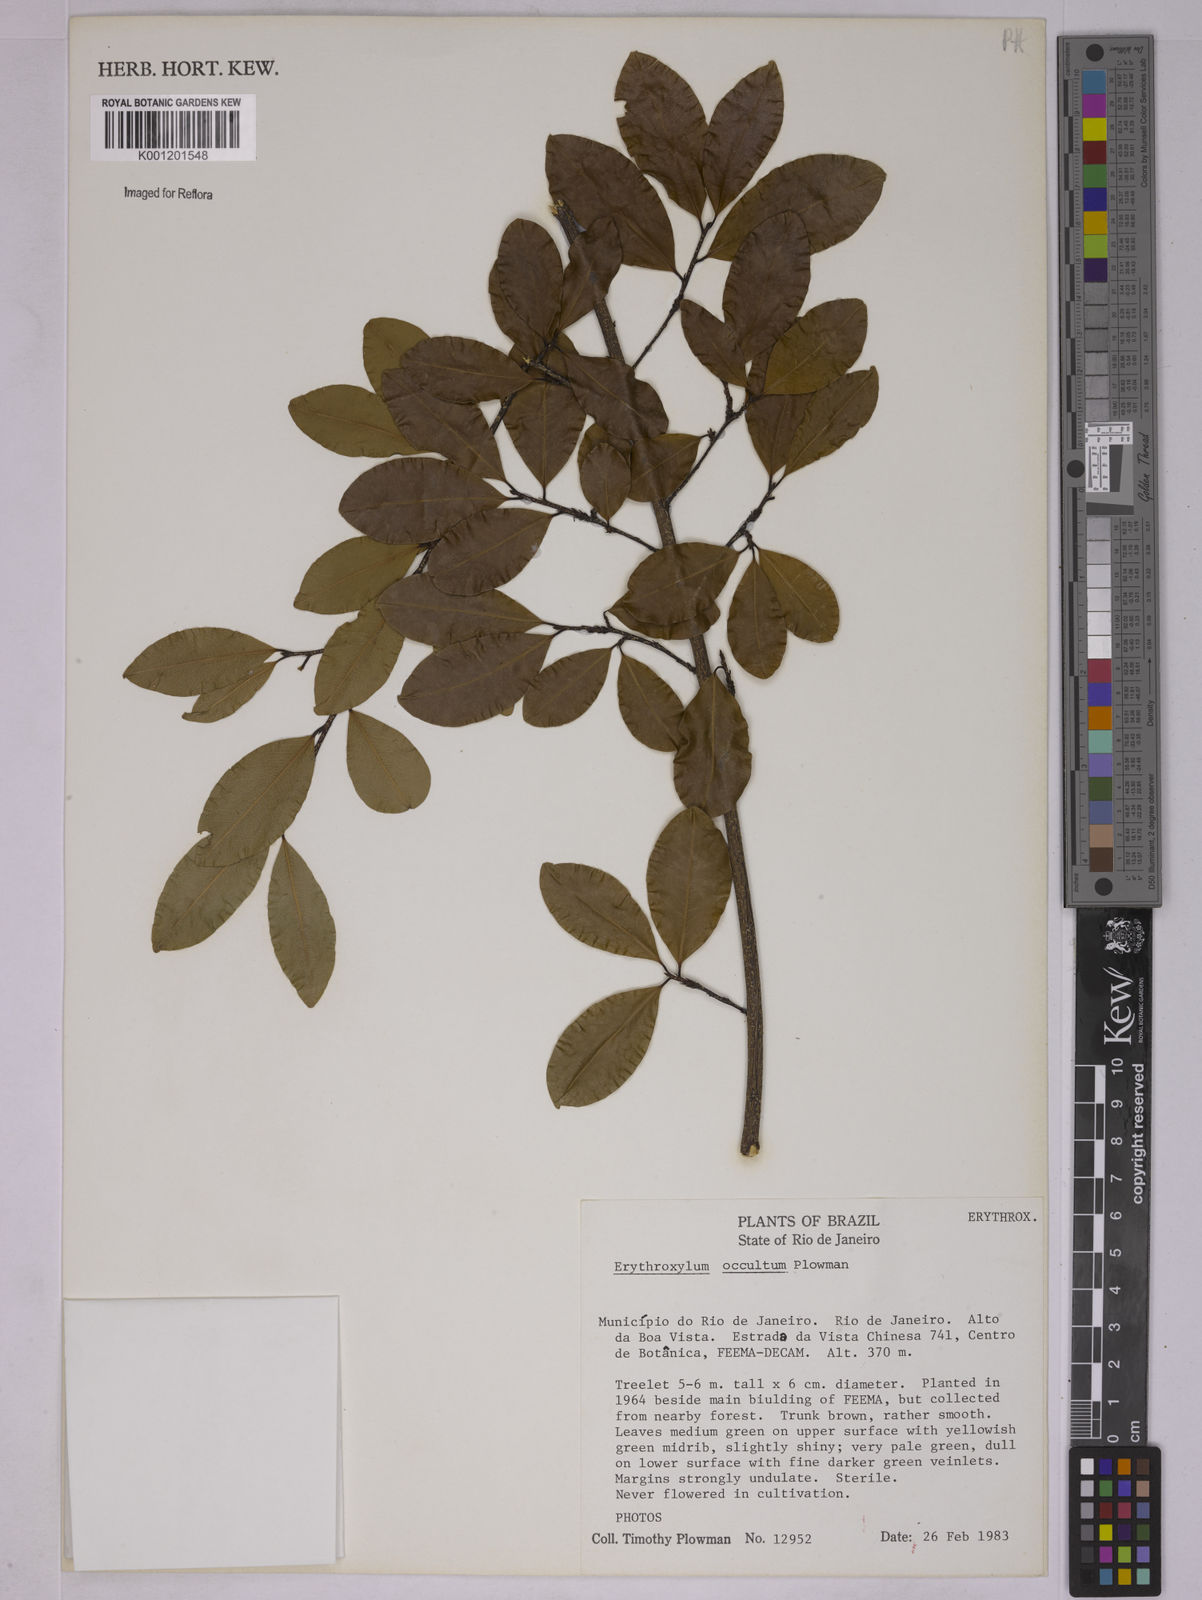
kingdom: Plantae
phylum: Tracheophyta
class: Magnoliopsida
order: Malpighiales
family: Erythroxylaceae
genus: Erythroxylum
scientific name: Erythroxylum occultum
